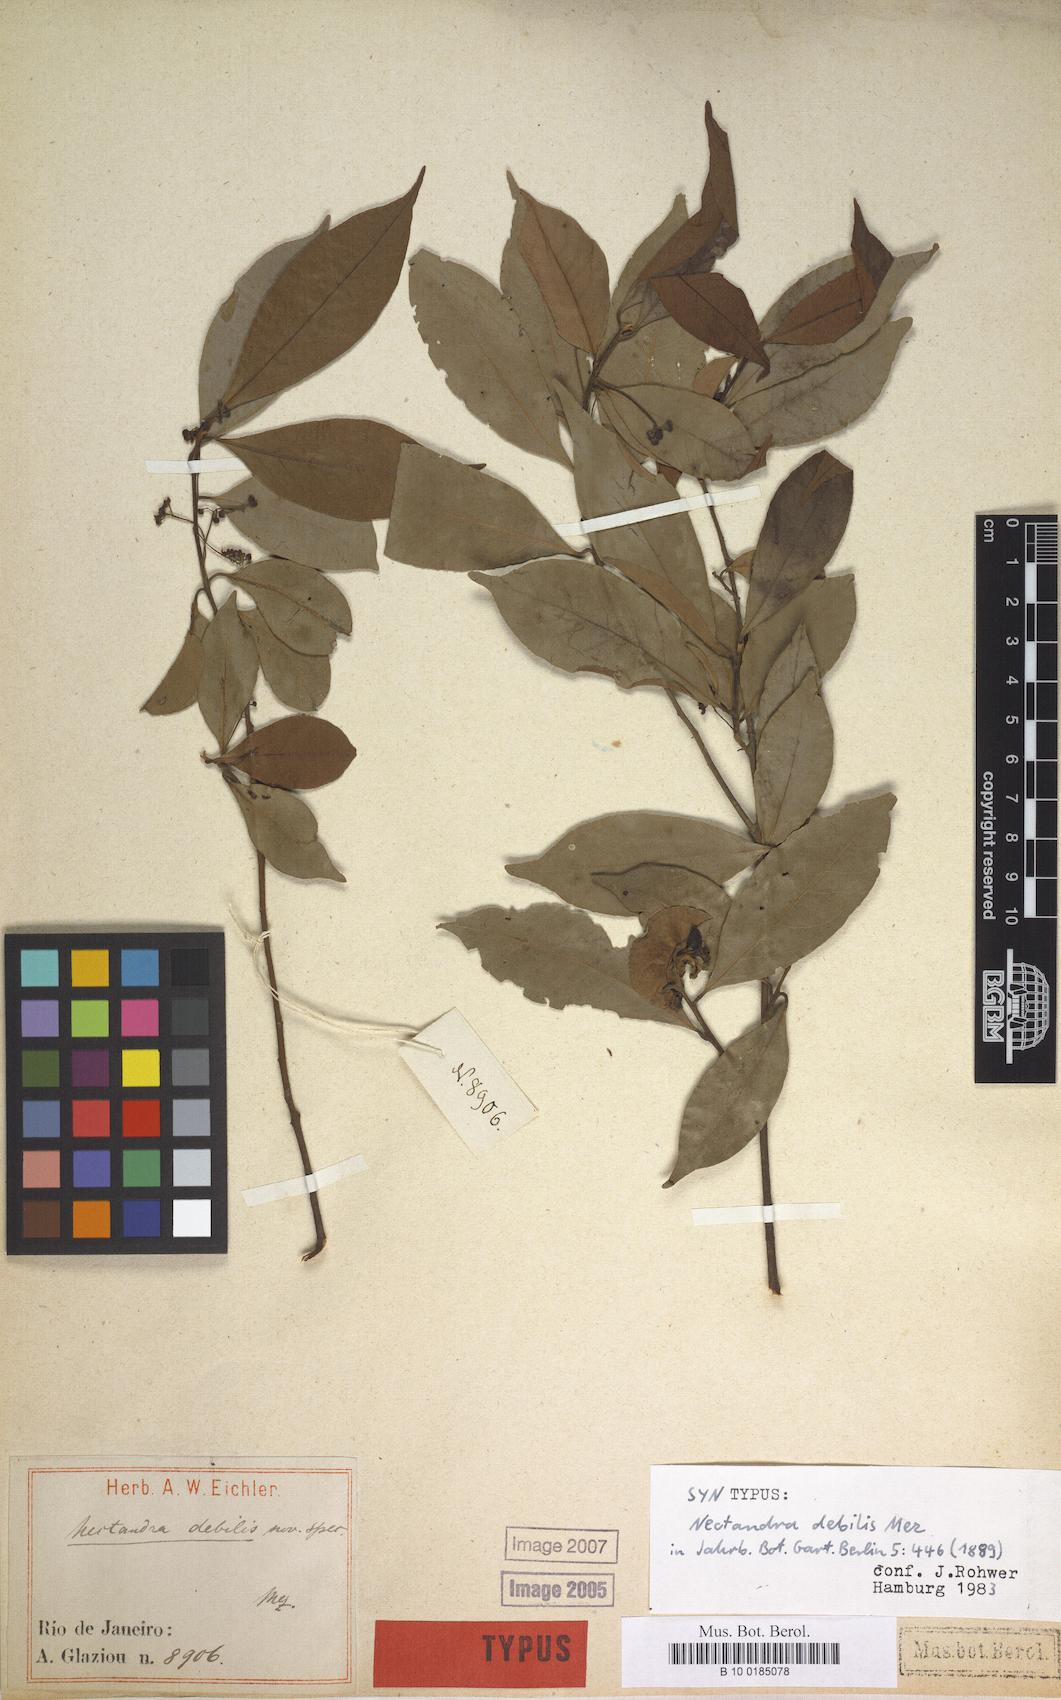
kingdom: Plantae
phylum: Tracheophyta
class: Magnoliopsida
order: Laurales
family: Lauraceae
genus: Nectandra
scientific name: Nectandra debilis
